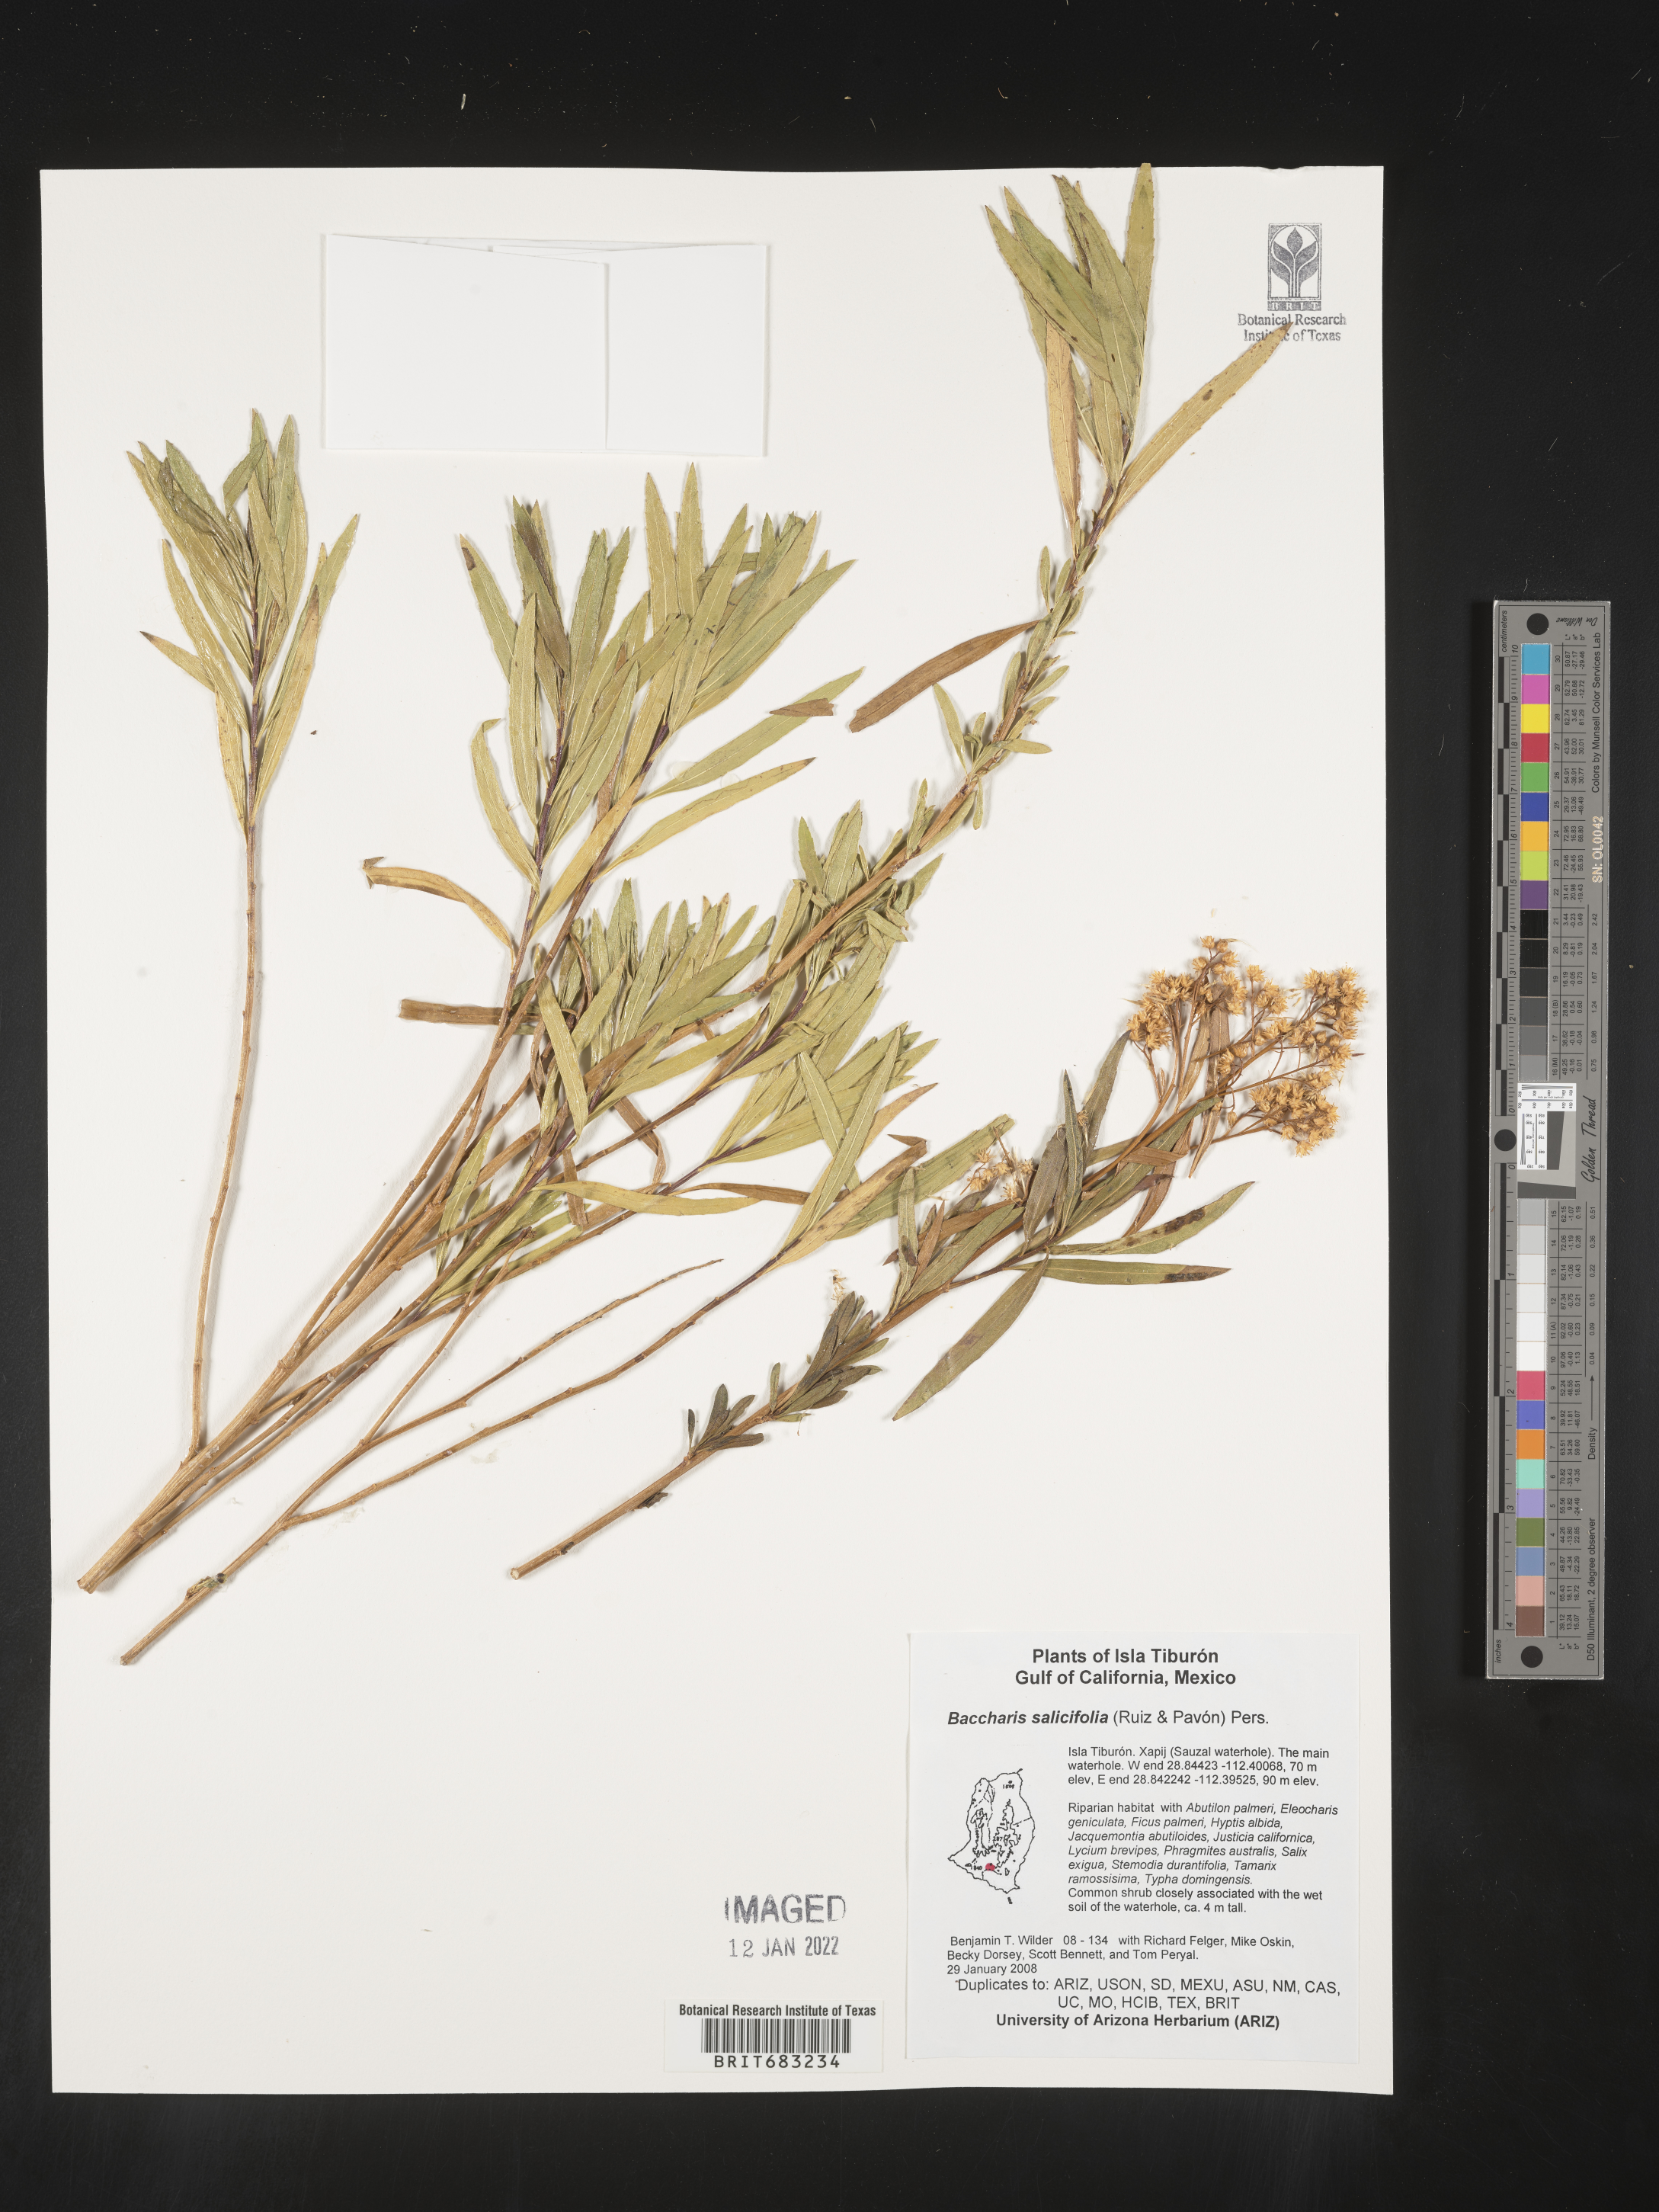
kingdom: Plantae
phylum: Tracheophyta
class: Magnoliopsida
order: Asterales
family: Asteraceae
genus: Baccharis
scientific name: Baccharis salicifolia
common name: Sticky baccharis
